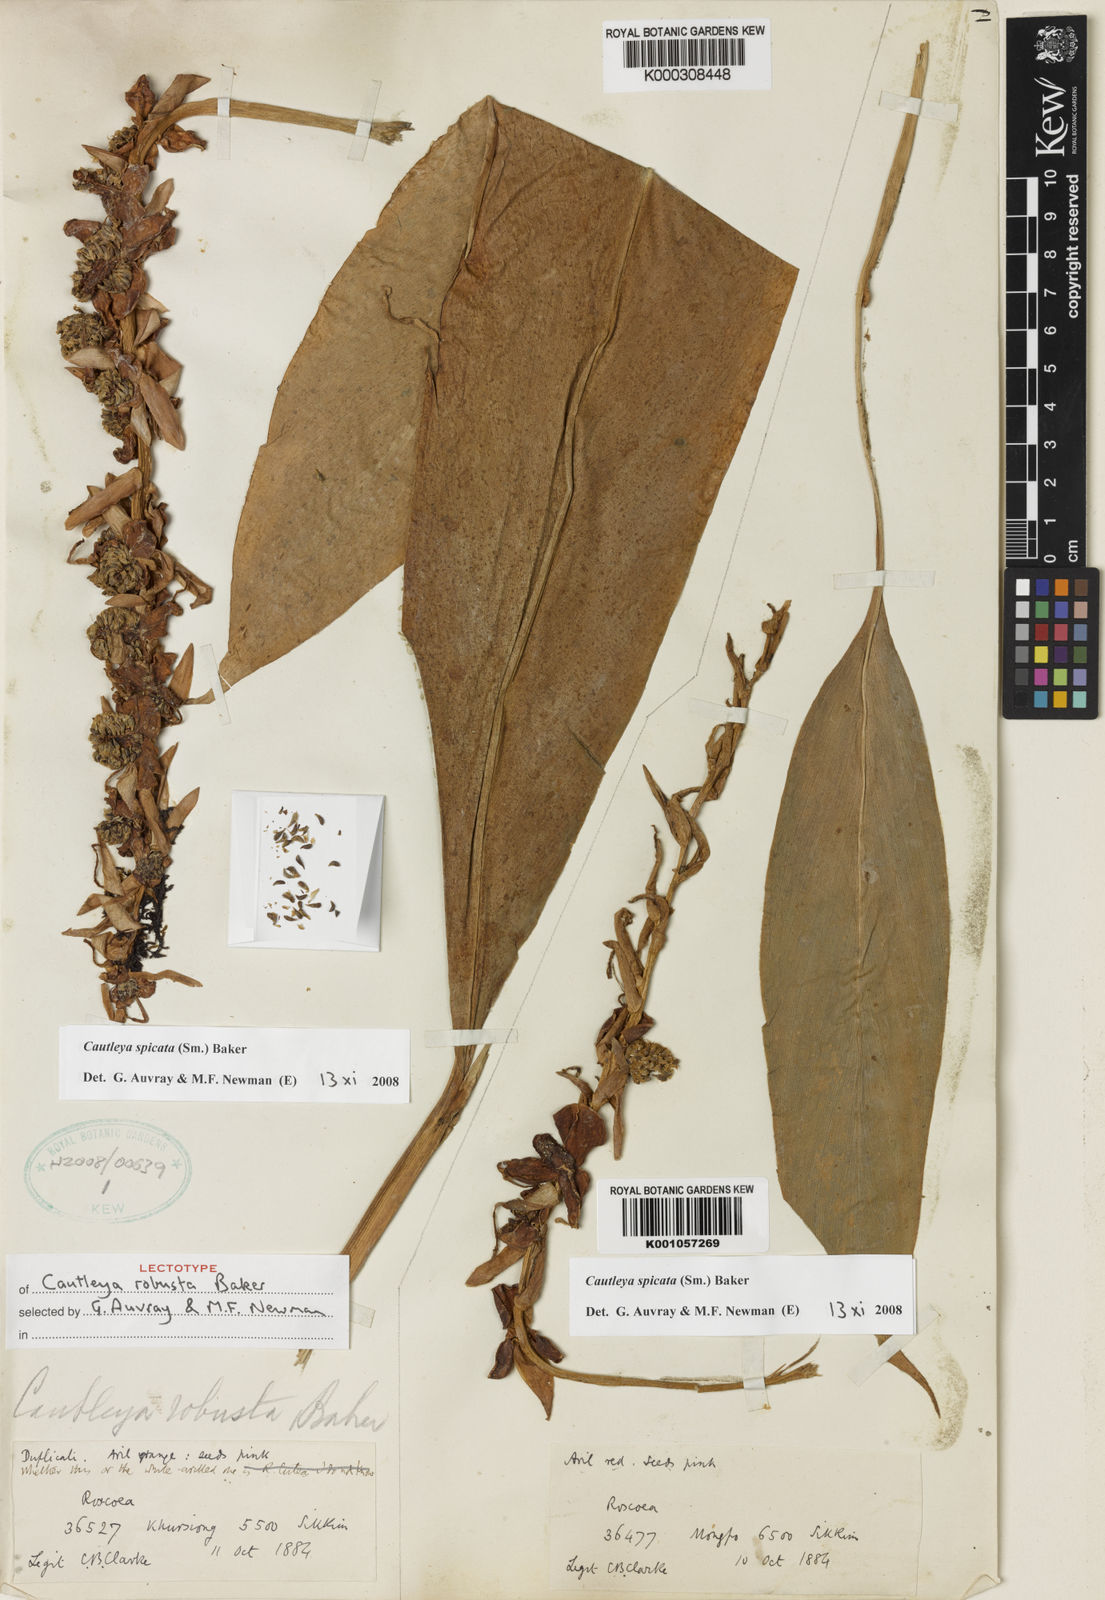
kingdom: Plantae
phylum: Tracheophyta
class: Liliopsida
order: Zingiberales
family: Zingiberaceae
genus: Cautleya
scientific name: Cautleya spicata
